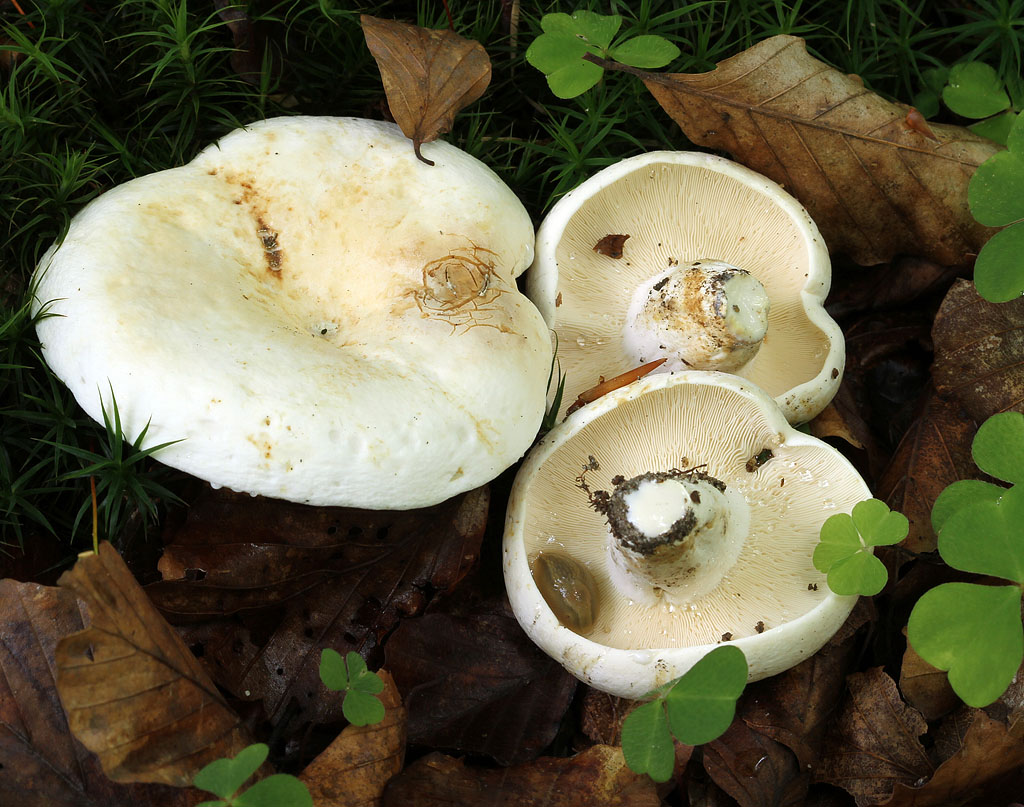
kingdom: Fungi
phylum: Basidiomycota
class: Agaricomycetes
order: Russulales
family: Russulaceae
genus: Lactifluus
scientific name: Lactifluus piperatus
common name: peber-mælkehat
